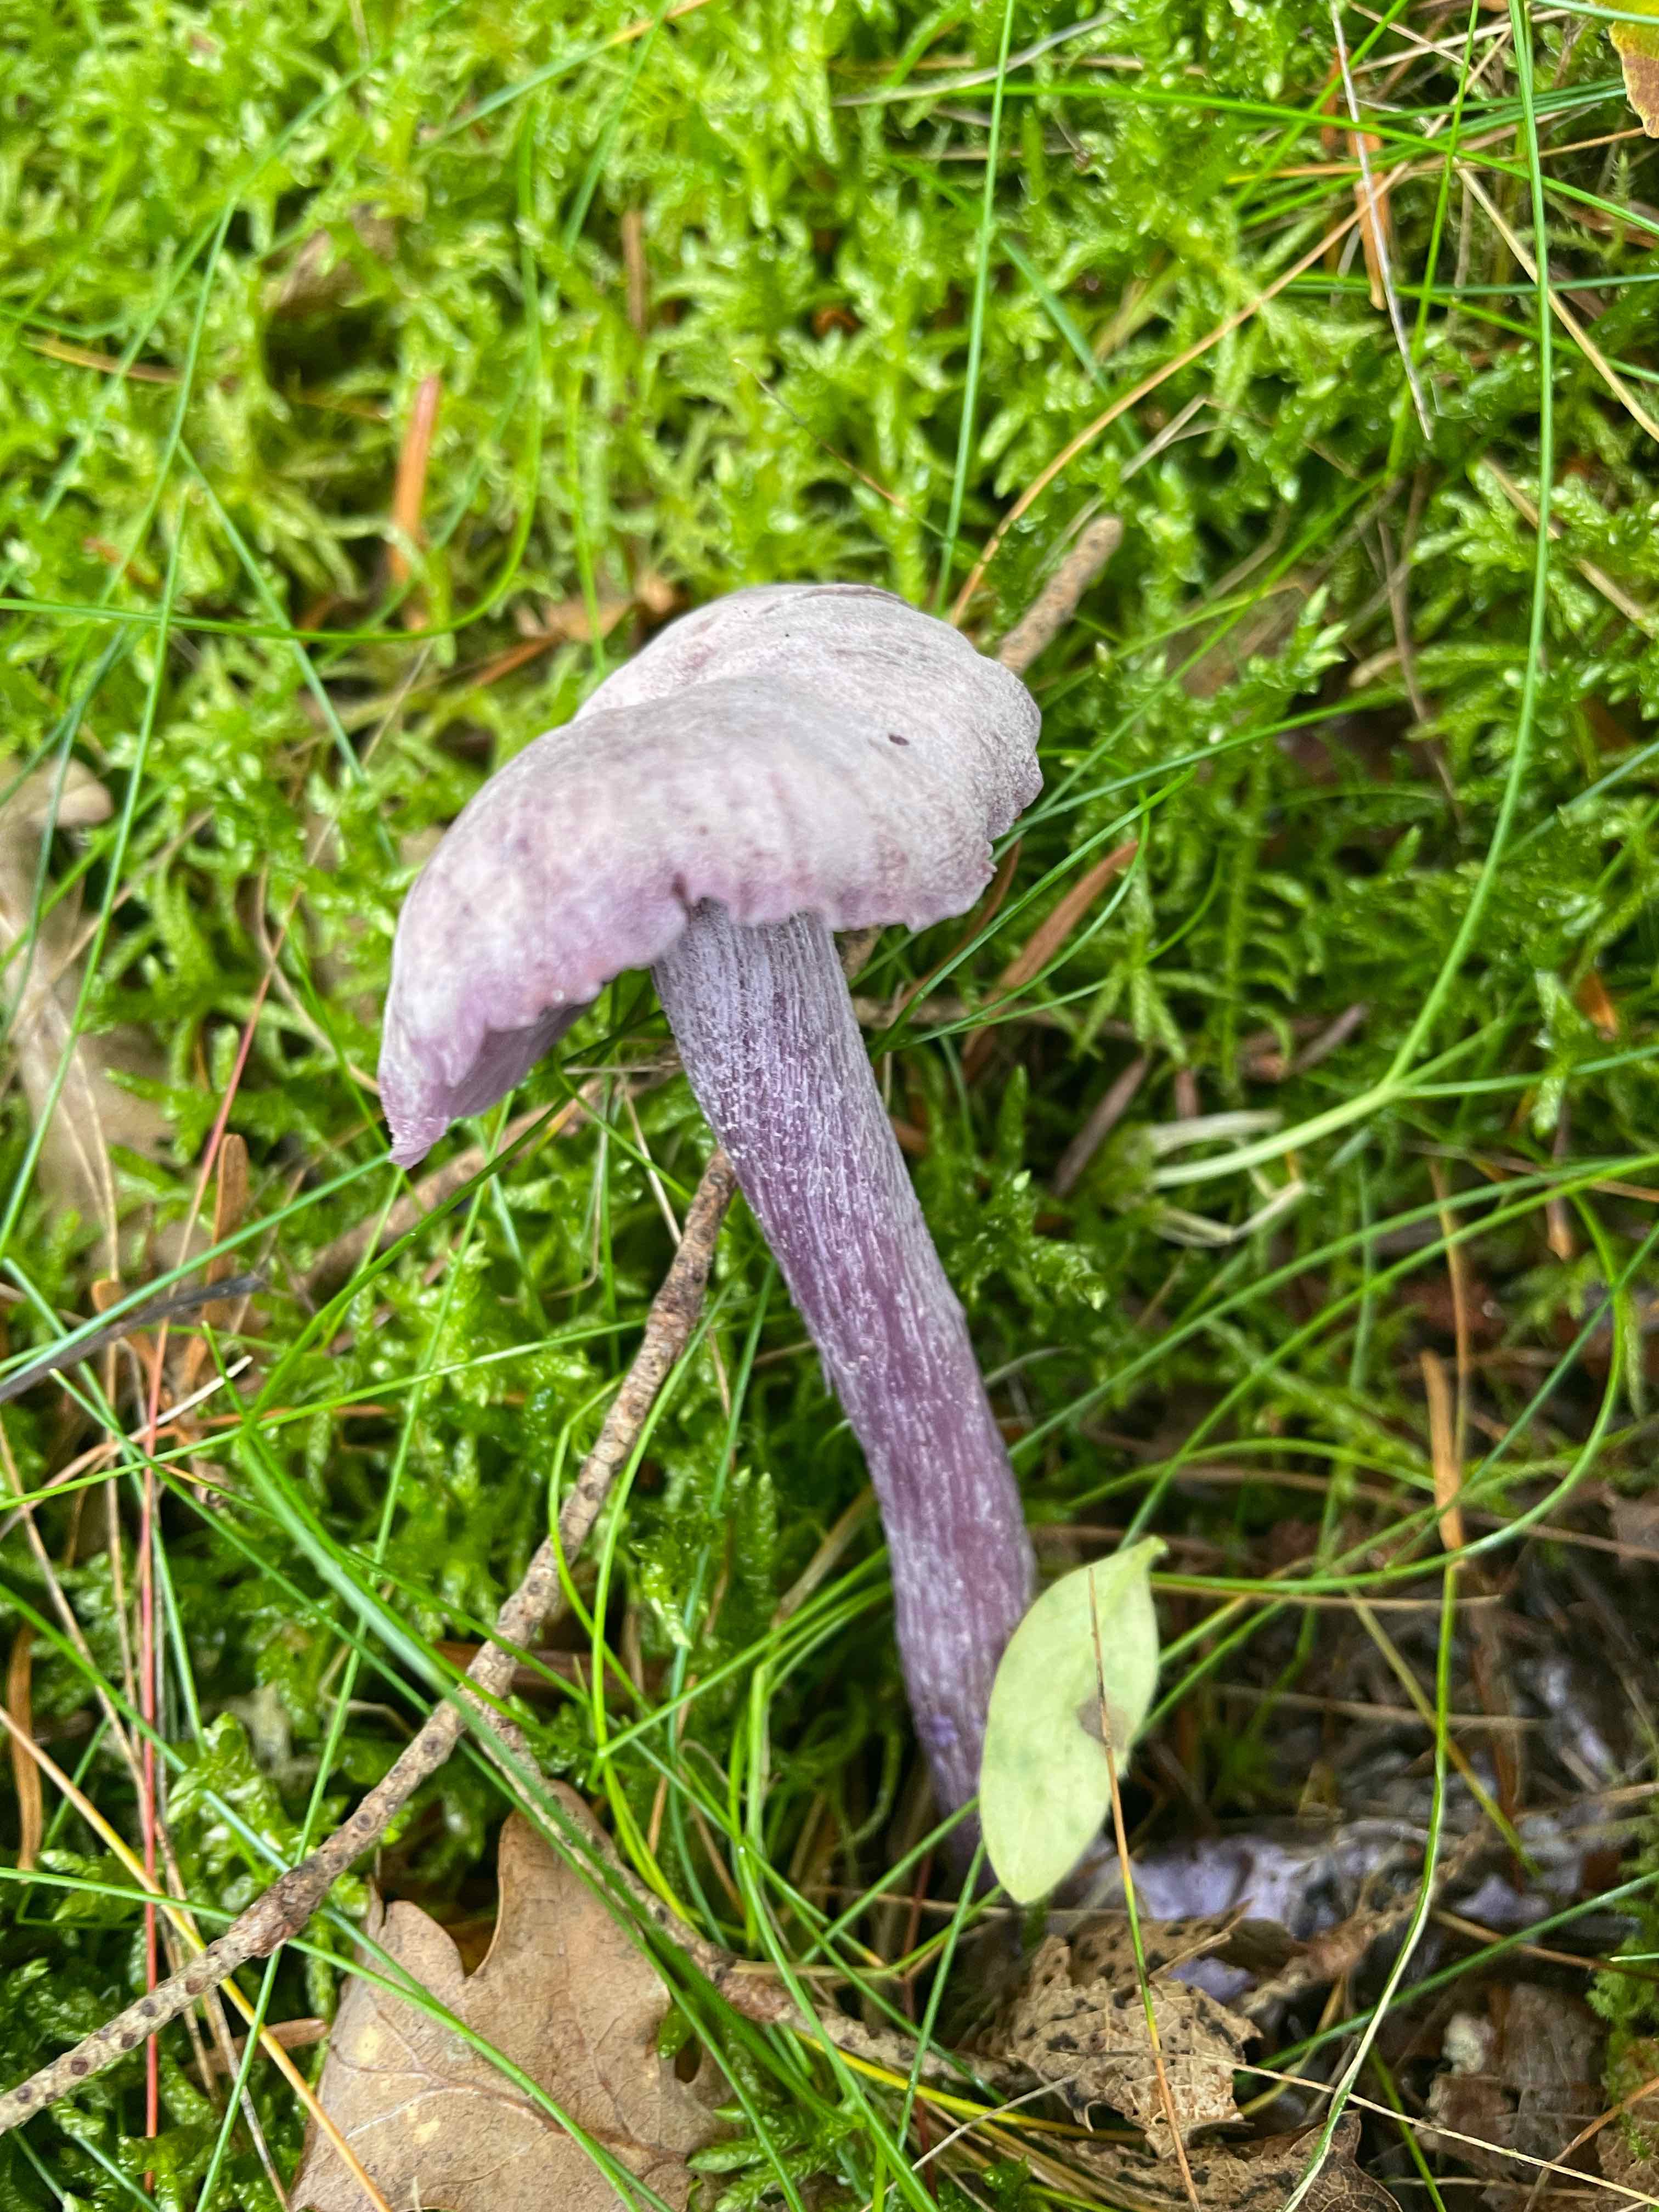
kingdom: Fungi
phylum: Basidiomycota
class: Agaricomycetes
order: Agaricales
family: Hydnangiaceae
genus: Laccaria
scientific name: Laccaria amethystina
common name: violet ametysthat
